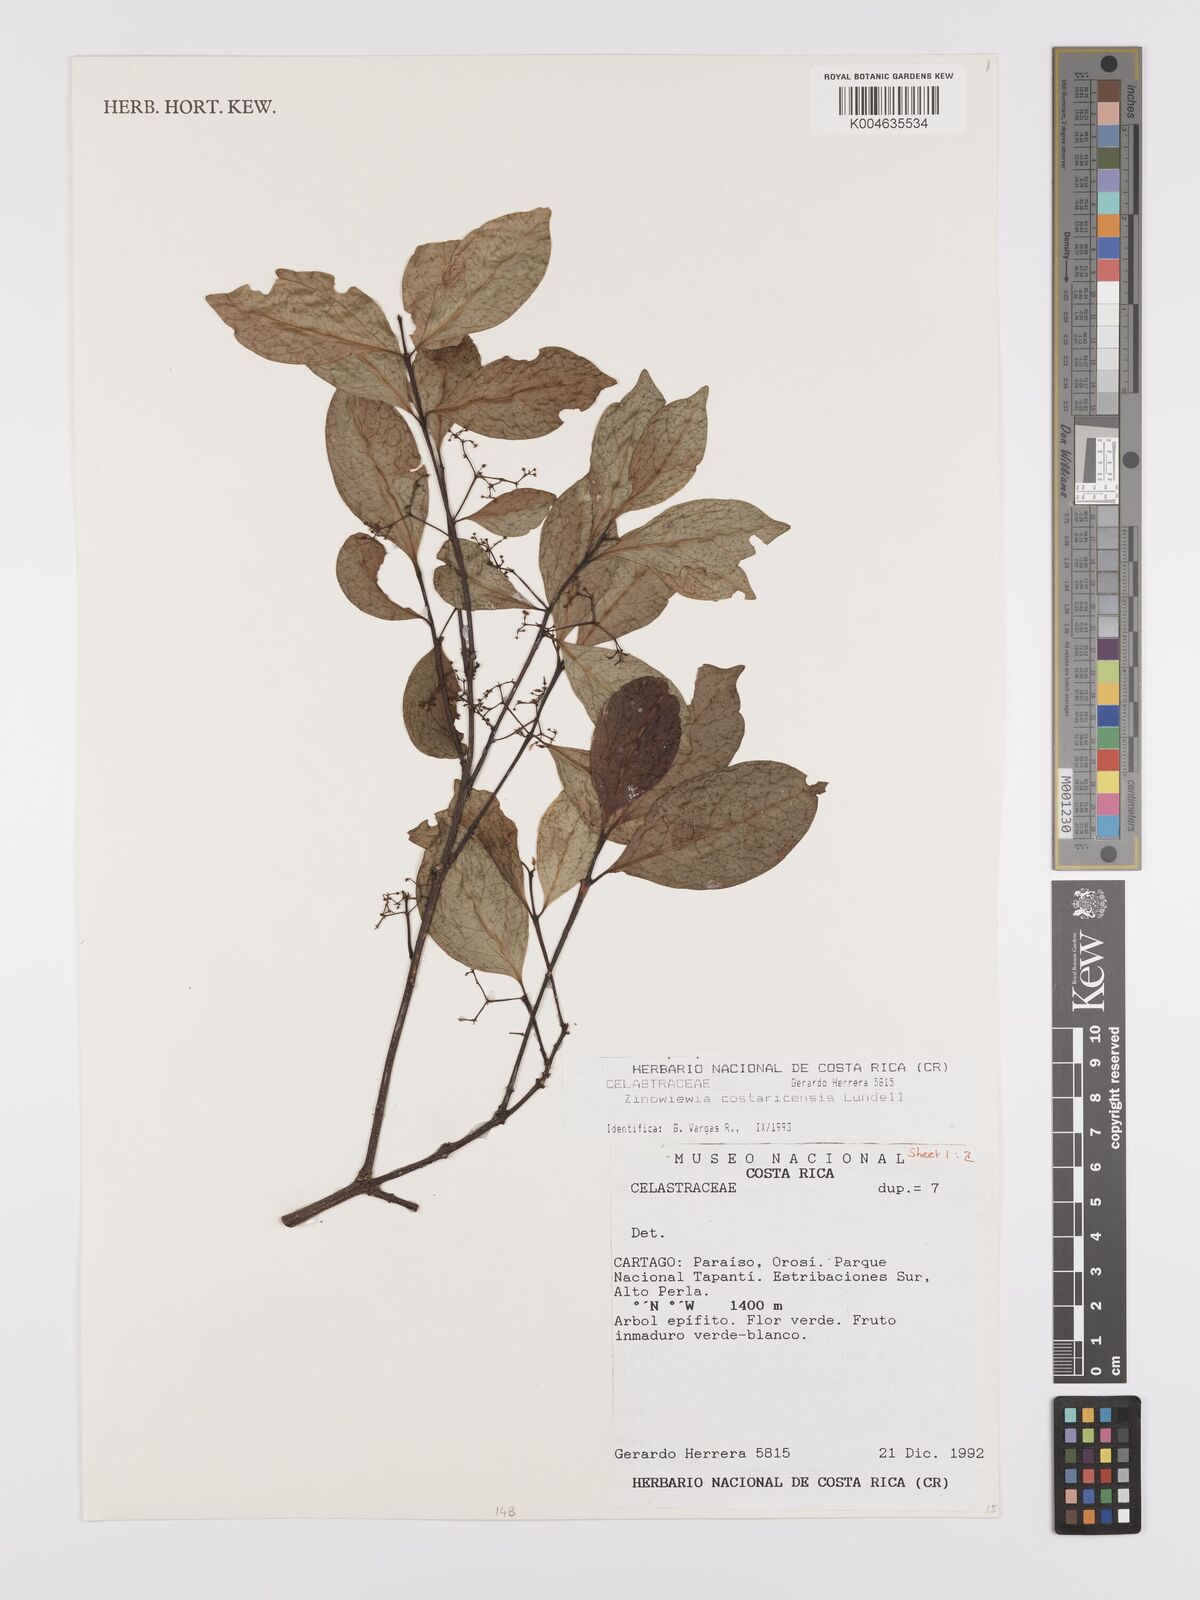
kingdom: Plantae
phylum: Tracheophyta
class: Magnoliopsida
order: Celastrales
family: Celastraceae
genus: Zinowiewia
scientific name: Zinowiewia integerrima
